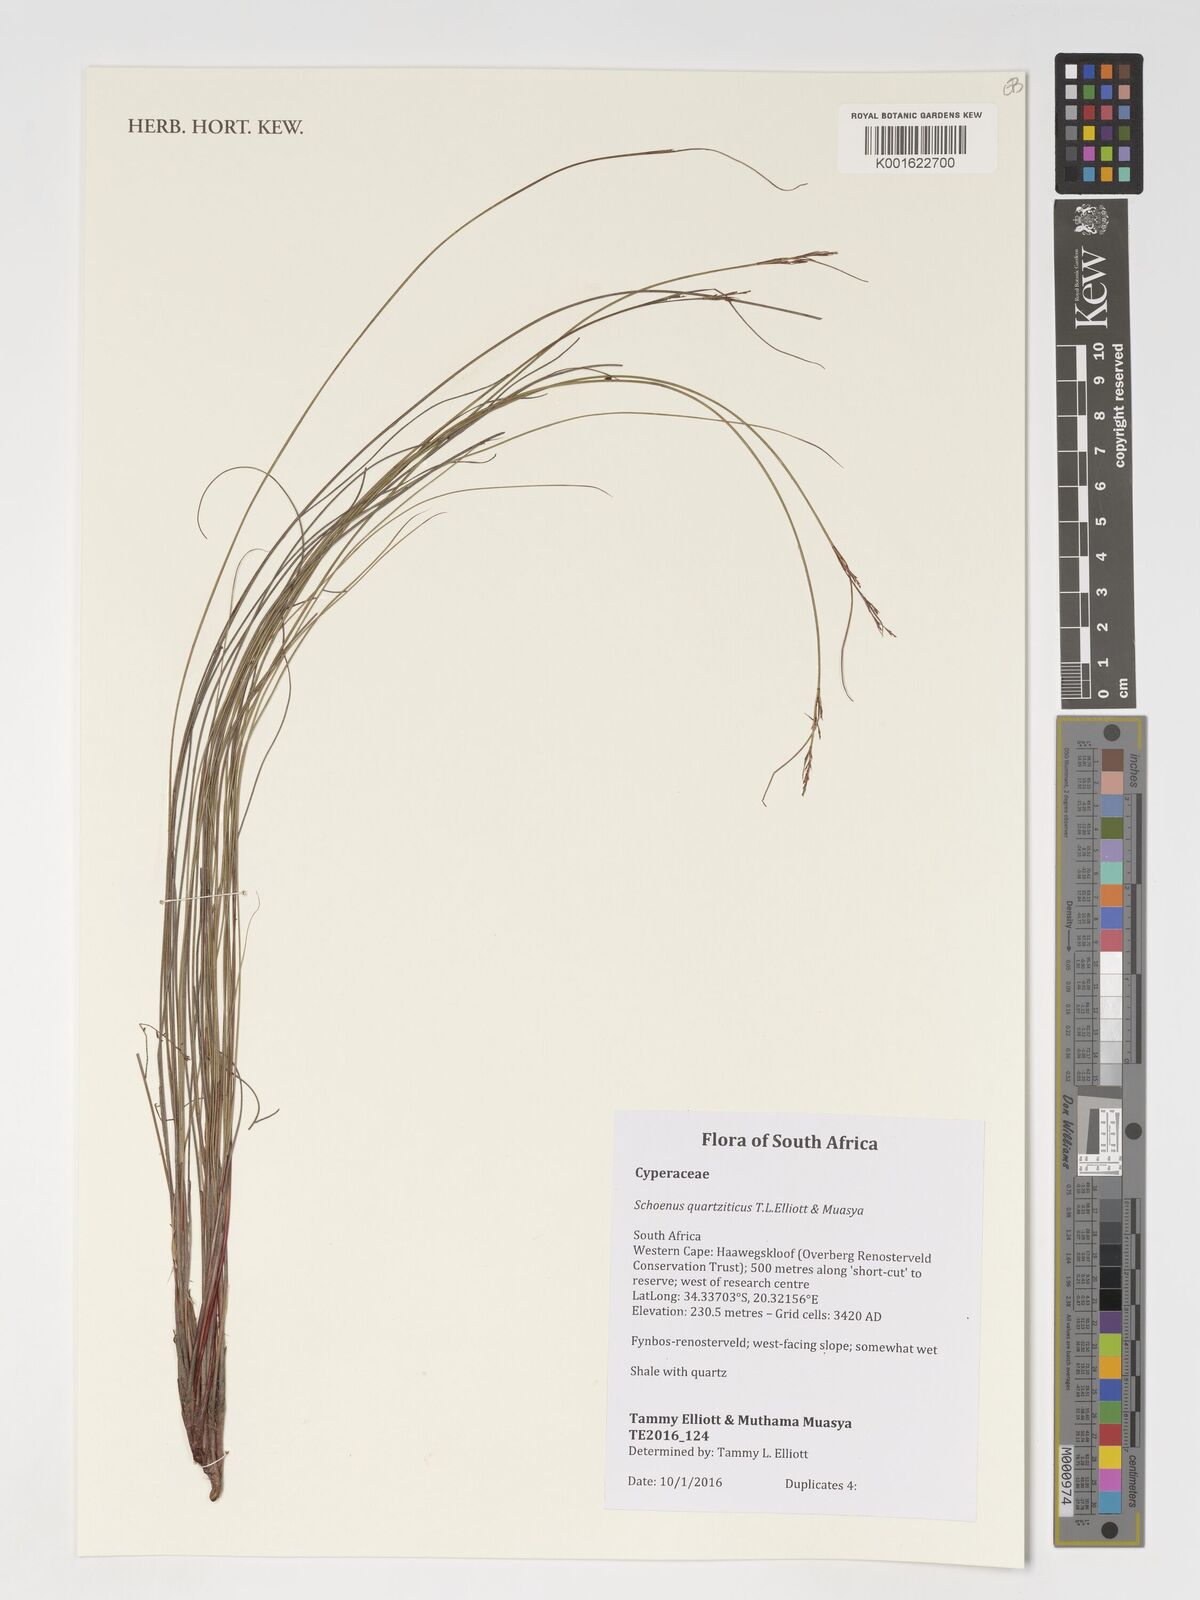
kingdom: Plantae
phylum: Tracheophyta
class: Liliopsida
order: Poales
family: Cyperaceae
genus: Schoenus
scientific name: Schoenus quartziticus
